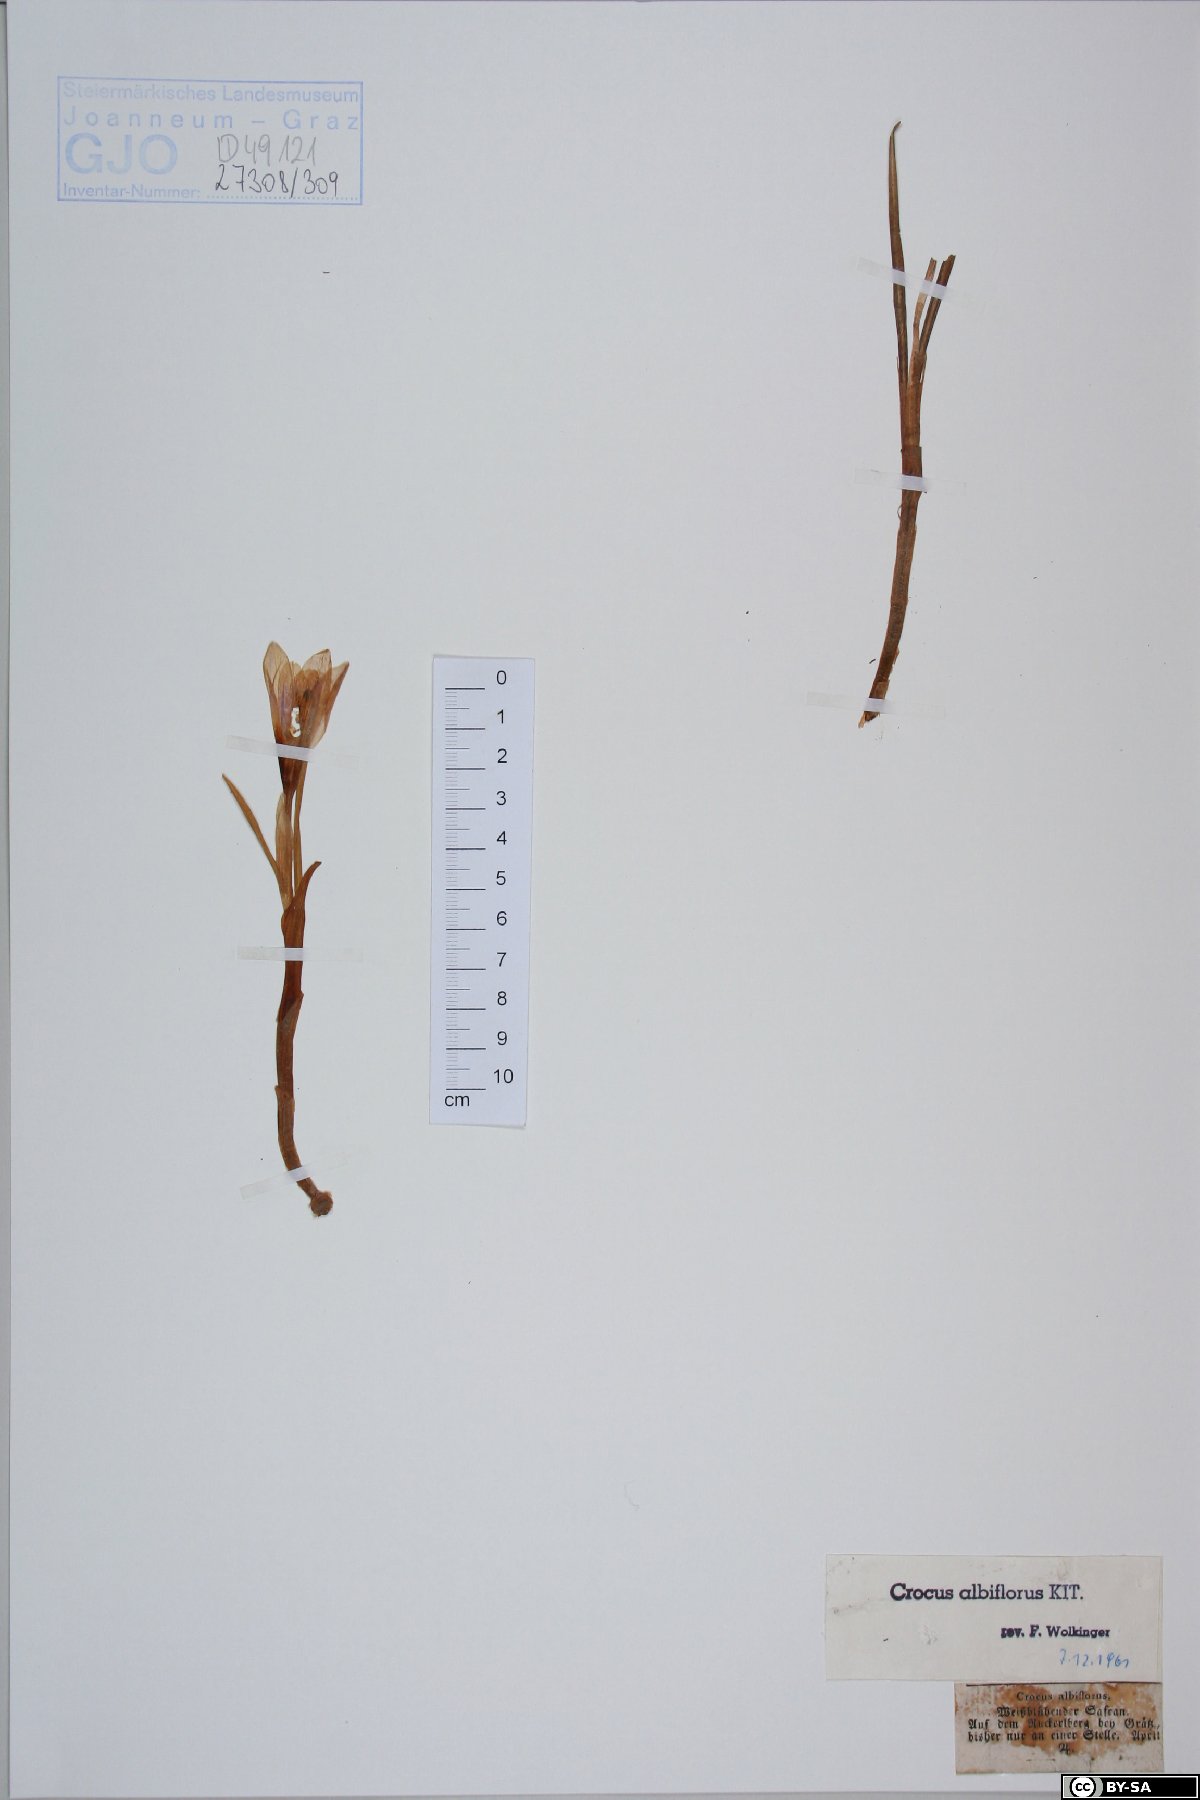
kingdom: Plantae
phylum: Tracheophyta
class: Liliopsida
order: Asparagales
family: Iridaceae
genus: Crocus
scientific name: Crocus vernus
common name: Spring crocus
